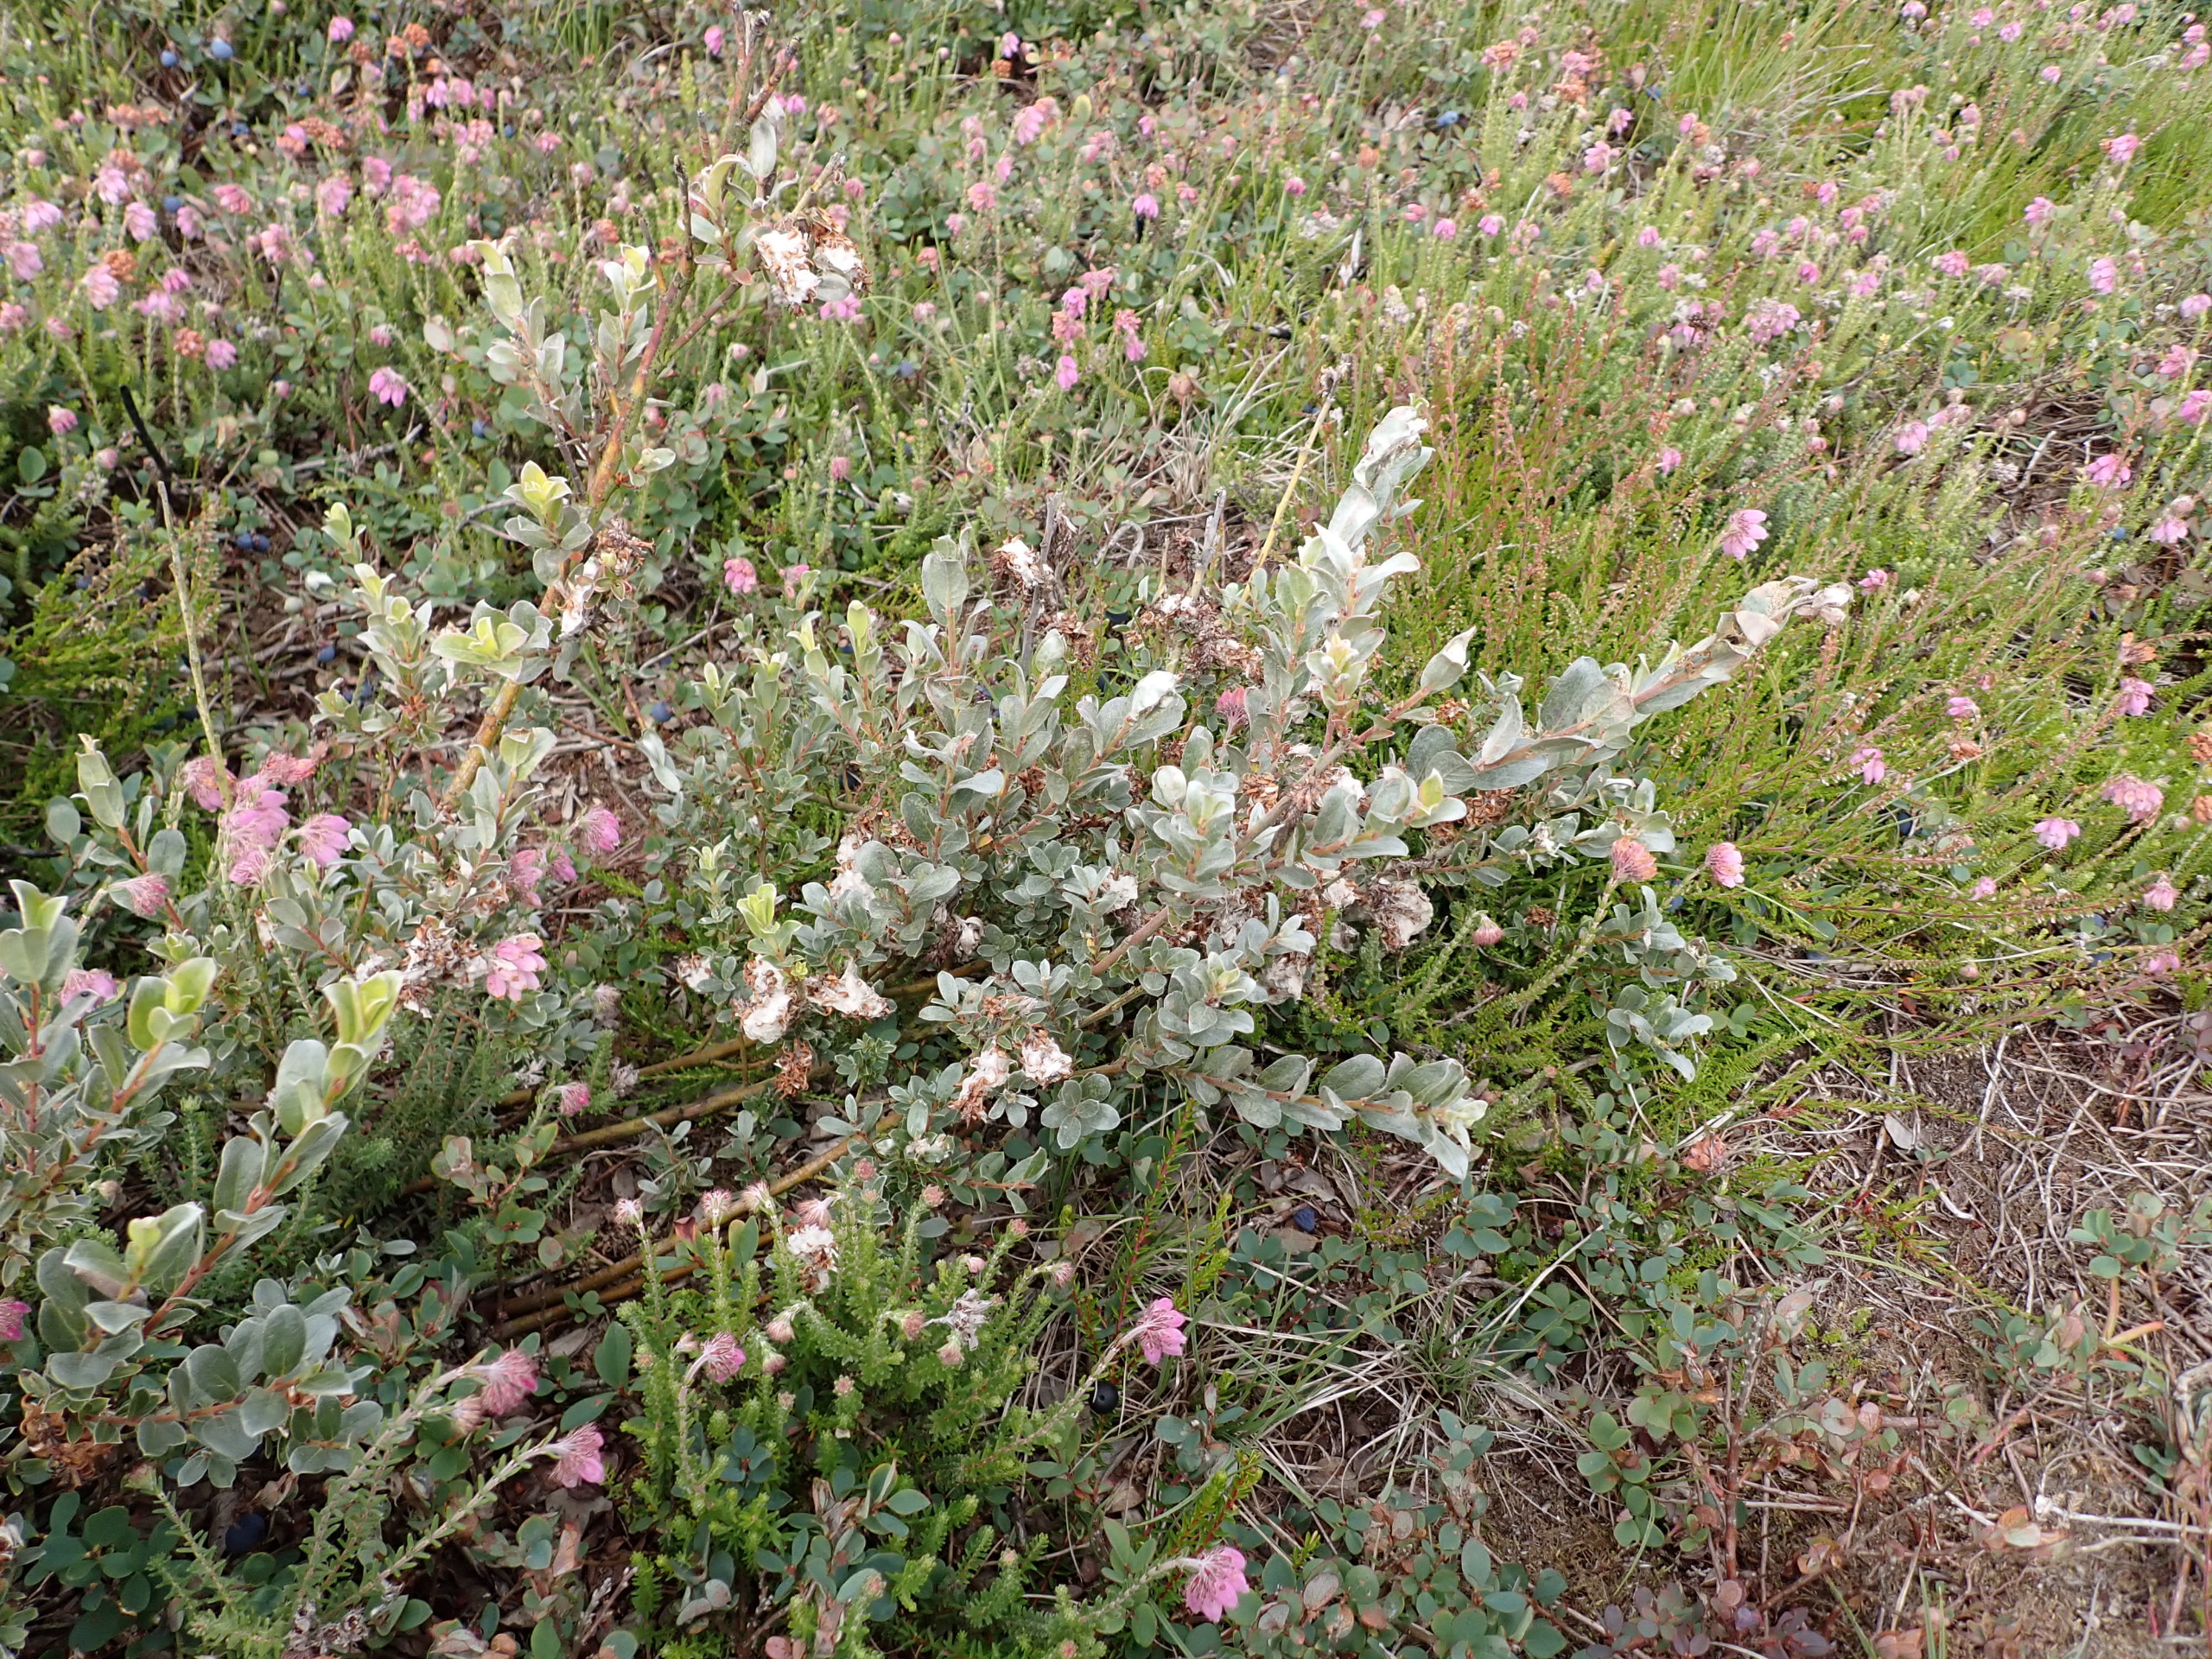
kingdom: Plantae
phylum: Tracheophyta
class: Magnoliopsida
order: Malpighiales
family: Salicaceae
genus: Salix
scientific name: Salix repens
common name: Gråris
